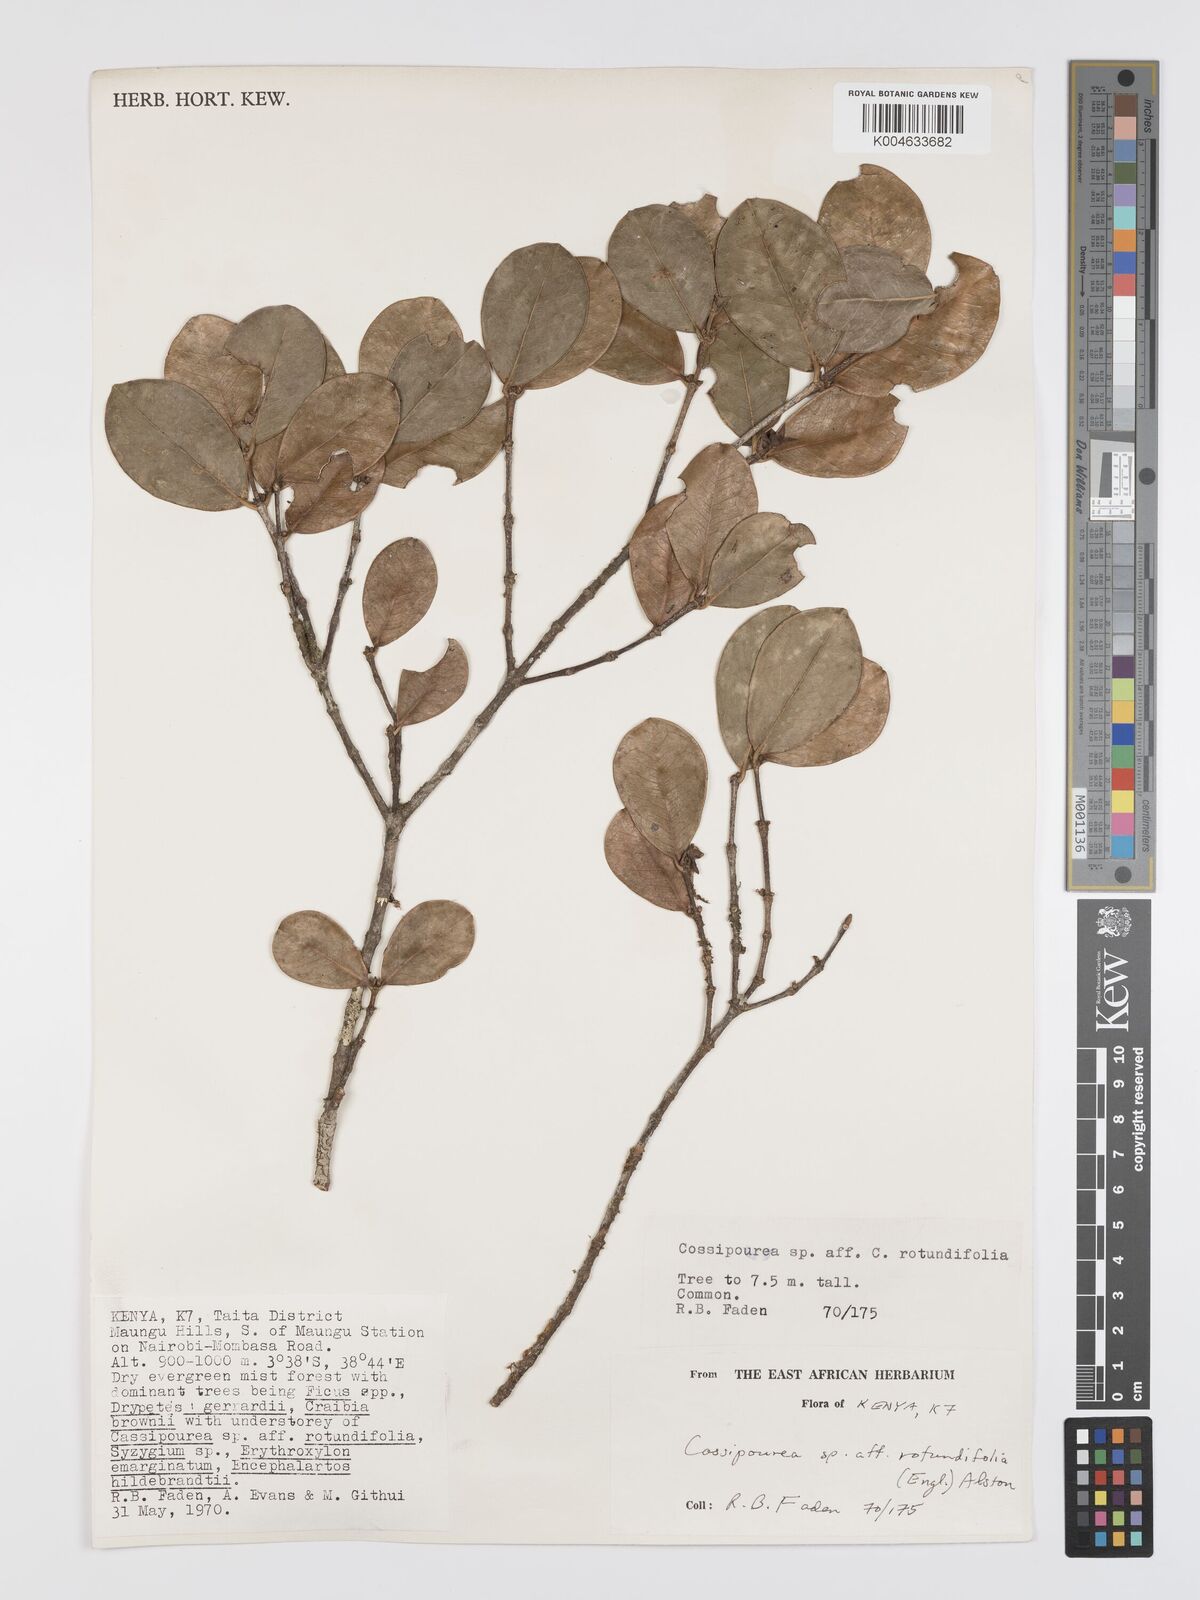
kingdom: Plantae
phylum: Tracheophyta
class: Magnoliopsida
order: Malpighiales
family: Rhizophoraceae
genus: Cassipourea
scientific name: Cassipourea rotundifolia
